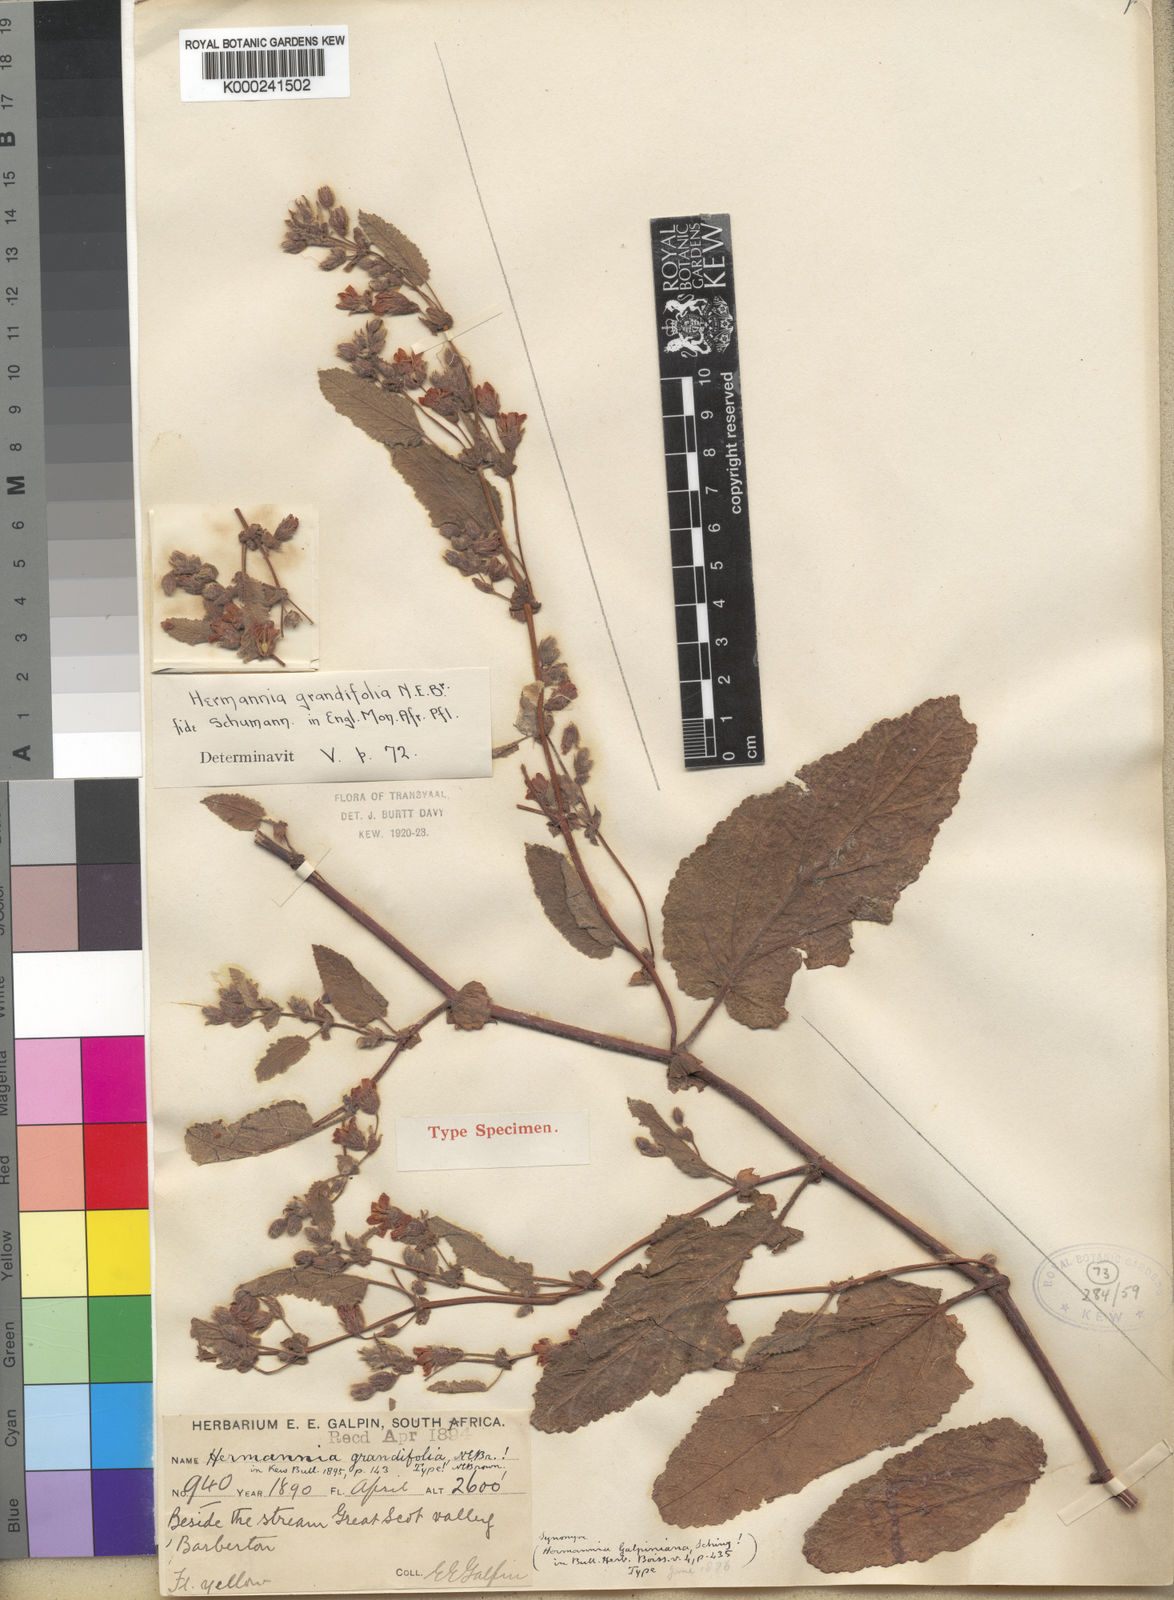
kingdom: Plantae
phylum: Tracheophyta
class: Magnoliopsida
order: Malvales
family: Malvaceae
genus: Hermannia
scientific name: Hermannia grandifolia
